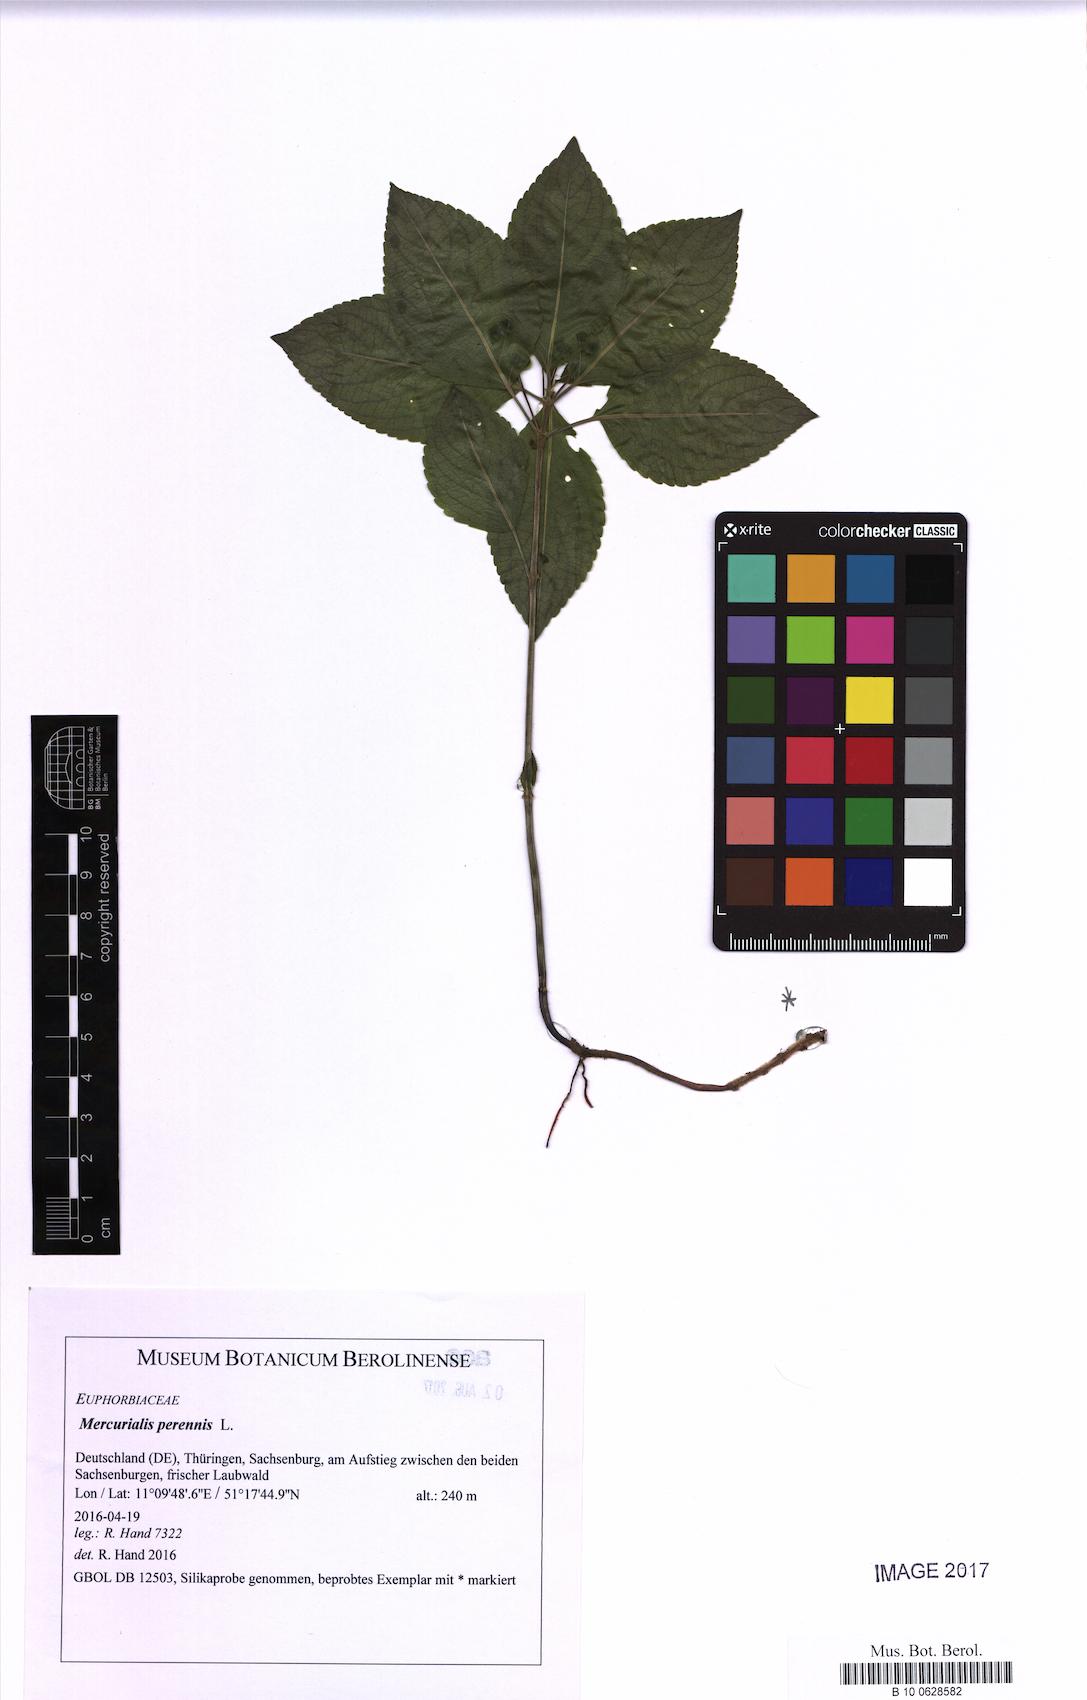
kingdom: Plantae
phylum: Tracheophyta
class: Magnoliopsida
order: Malpighiales
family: Euphorbiaceae
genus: Mercurialis
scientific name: Mercurialis perennis
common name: Dog mercury
